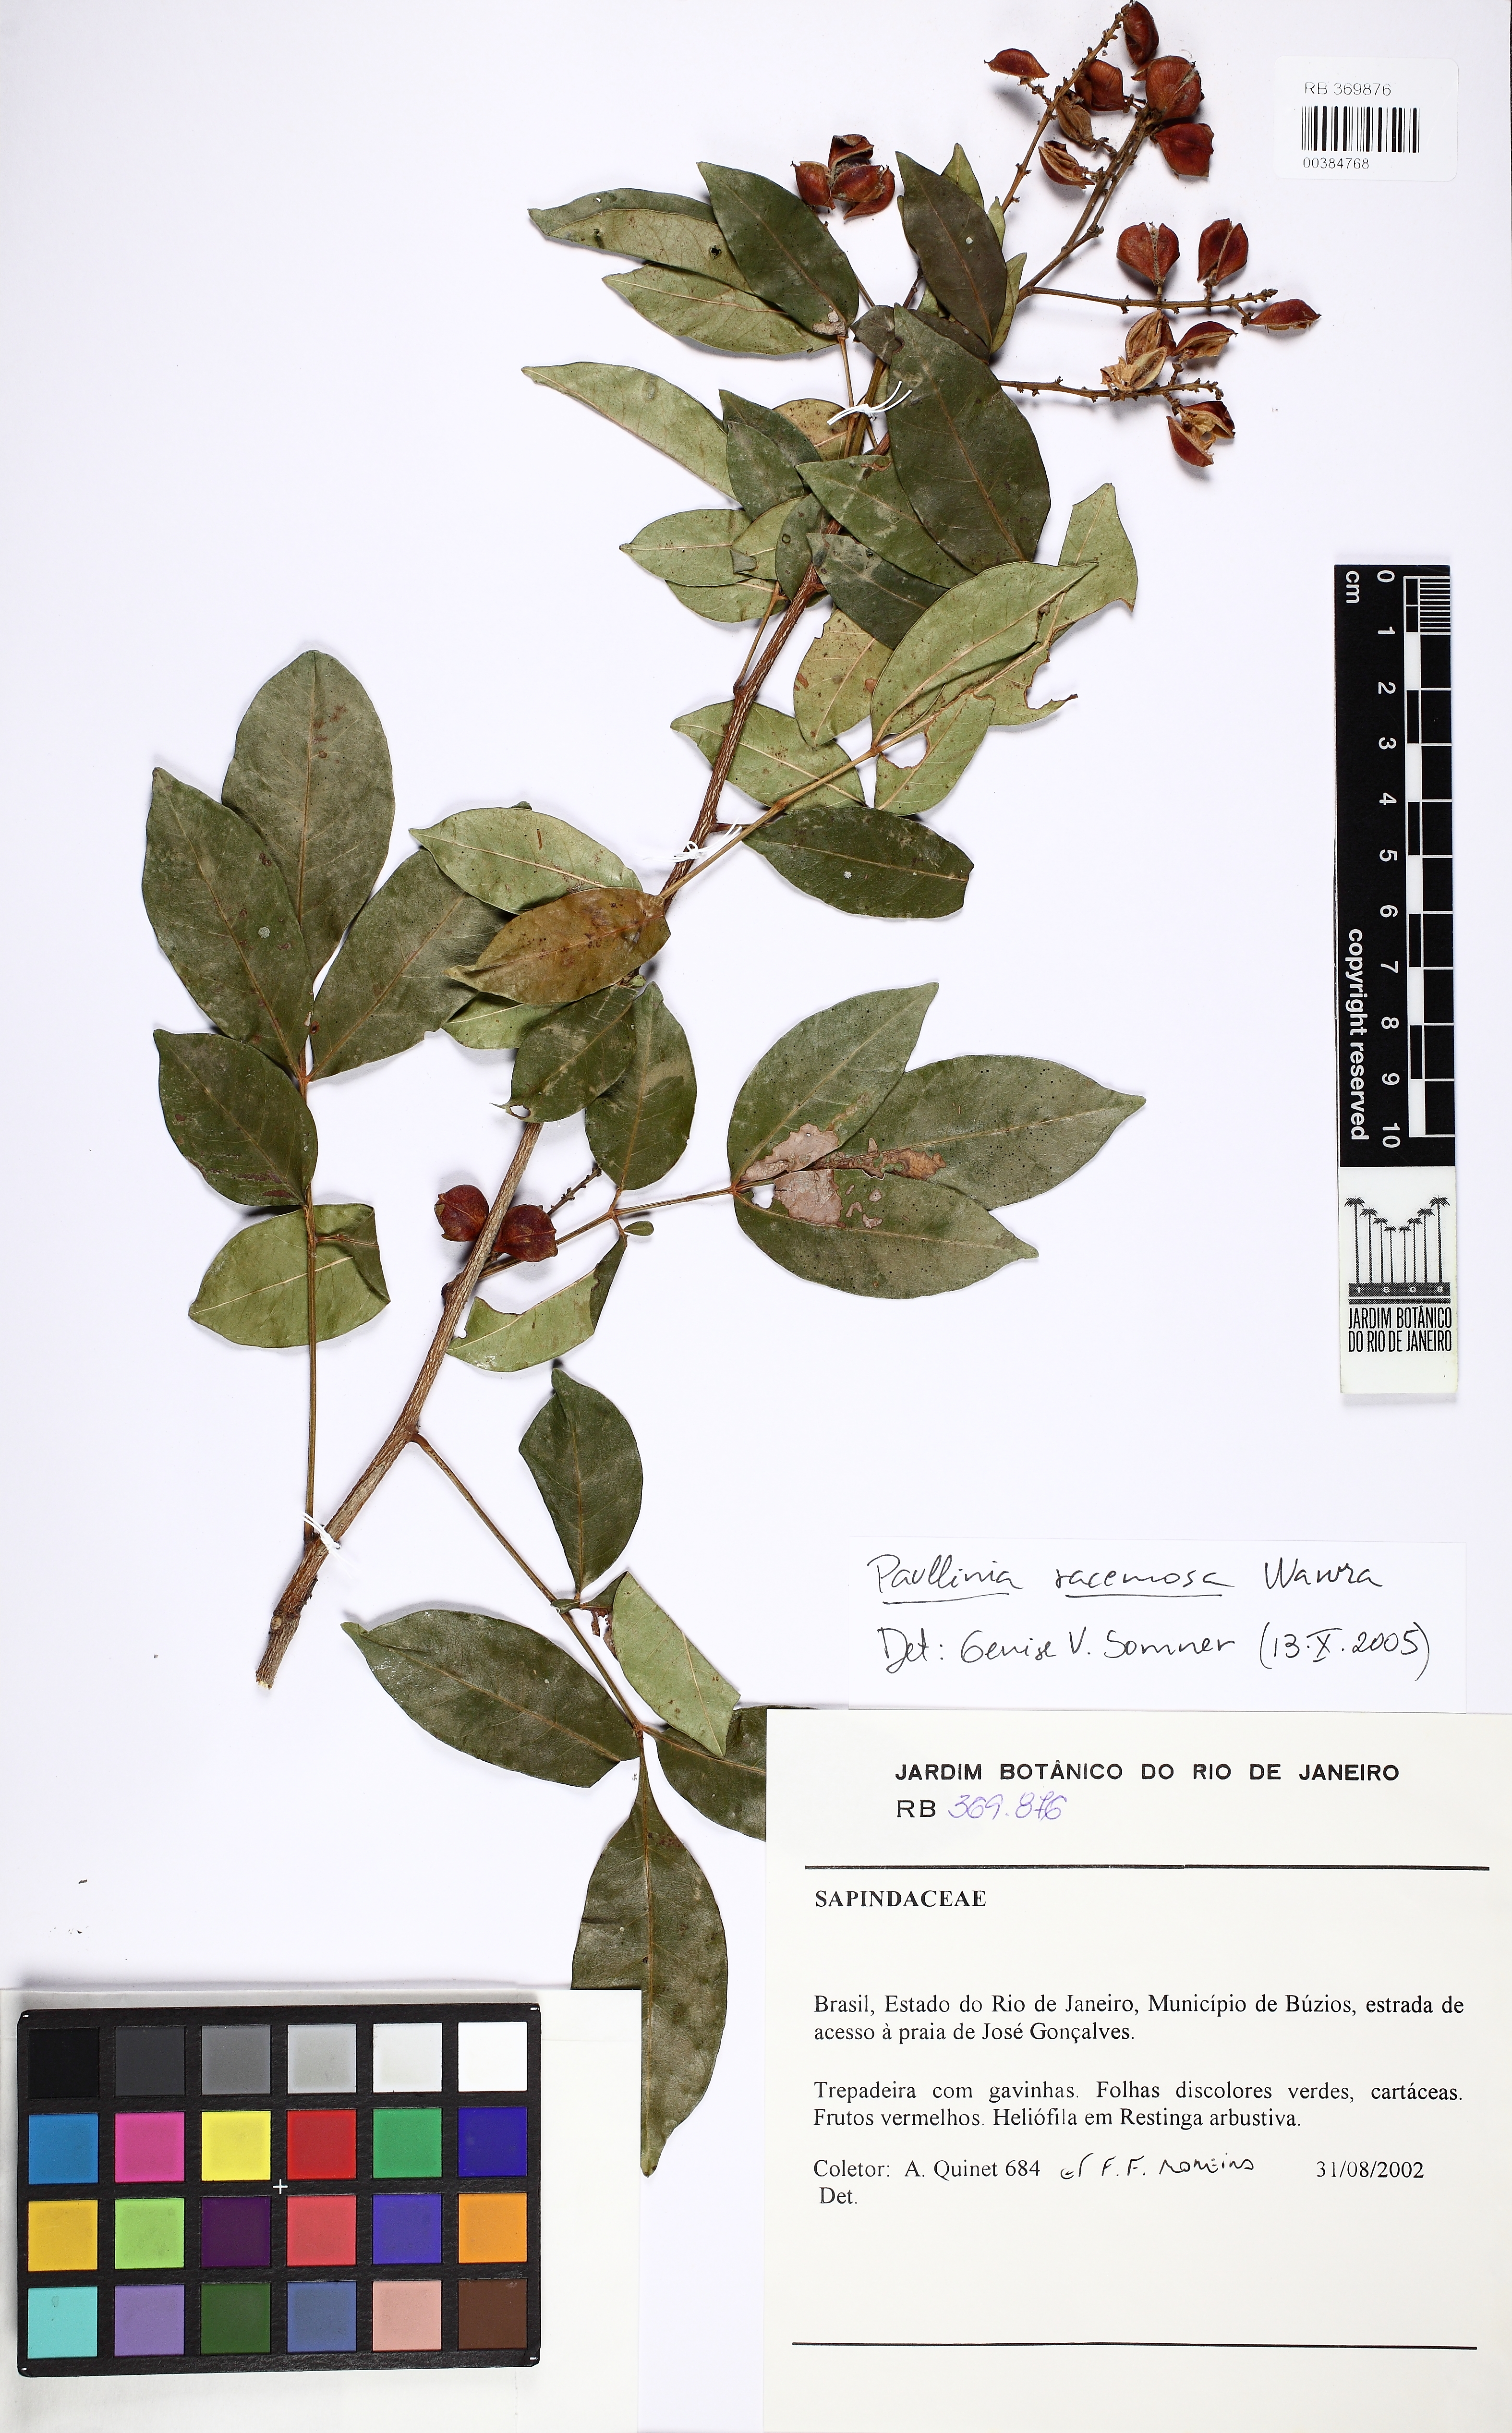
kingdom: Plantae
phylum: Tracheophyta
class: Magnoliopsida
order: Sapindales
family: Sapindaceae
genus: Paullinia
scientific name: Paullinia racemosa
